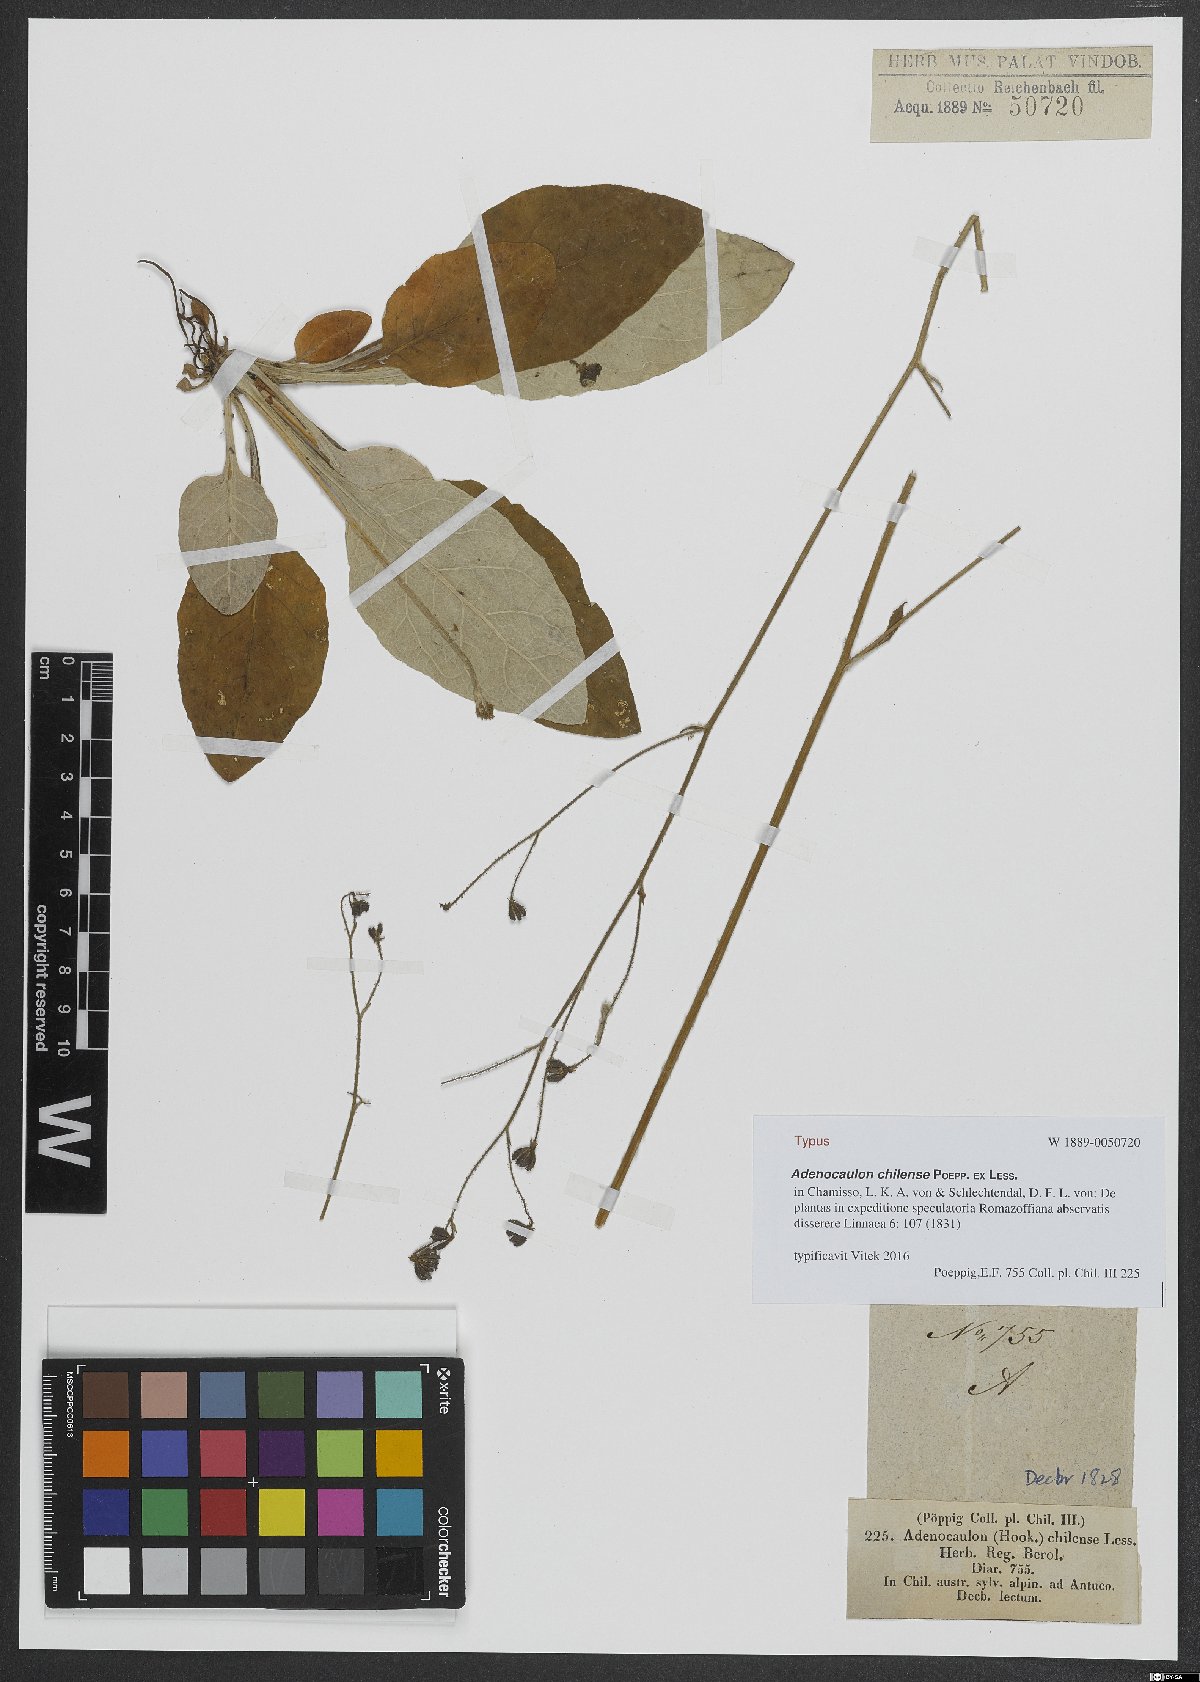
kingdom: Plantae
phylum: Tracheophyta
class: Magnoliopsida
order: Asterales
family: Asteraceae
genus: Adenocaulon
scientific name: Adenocaulon chilense
